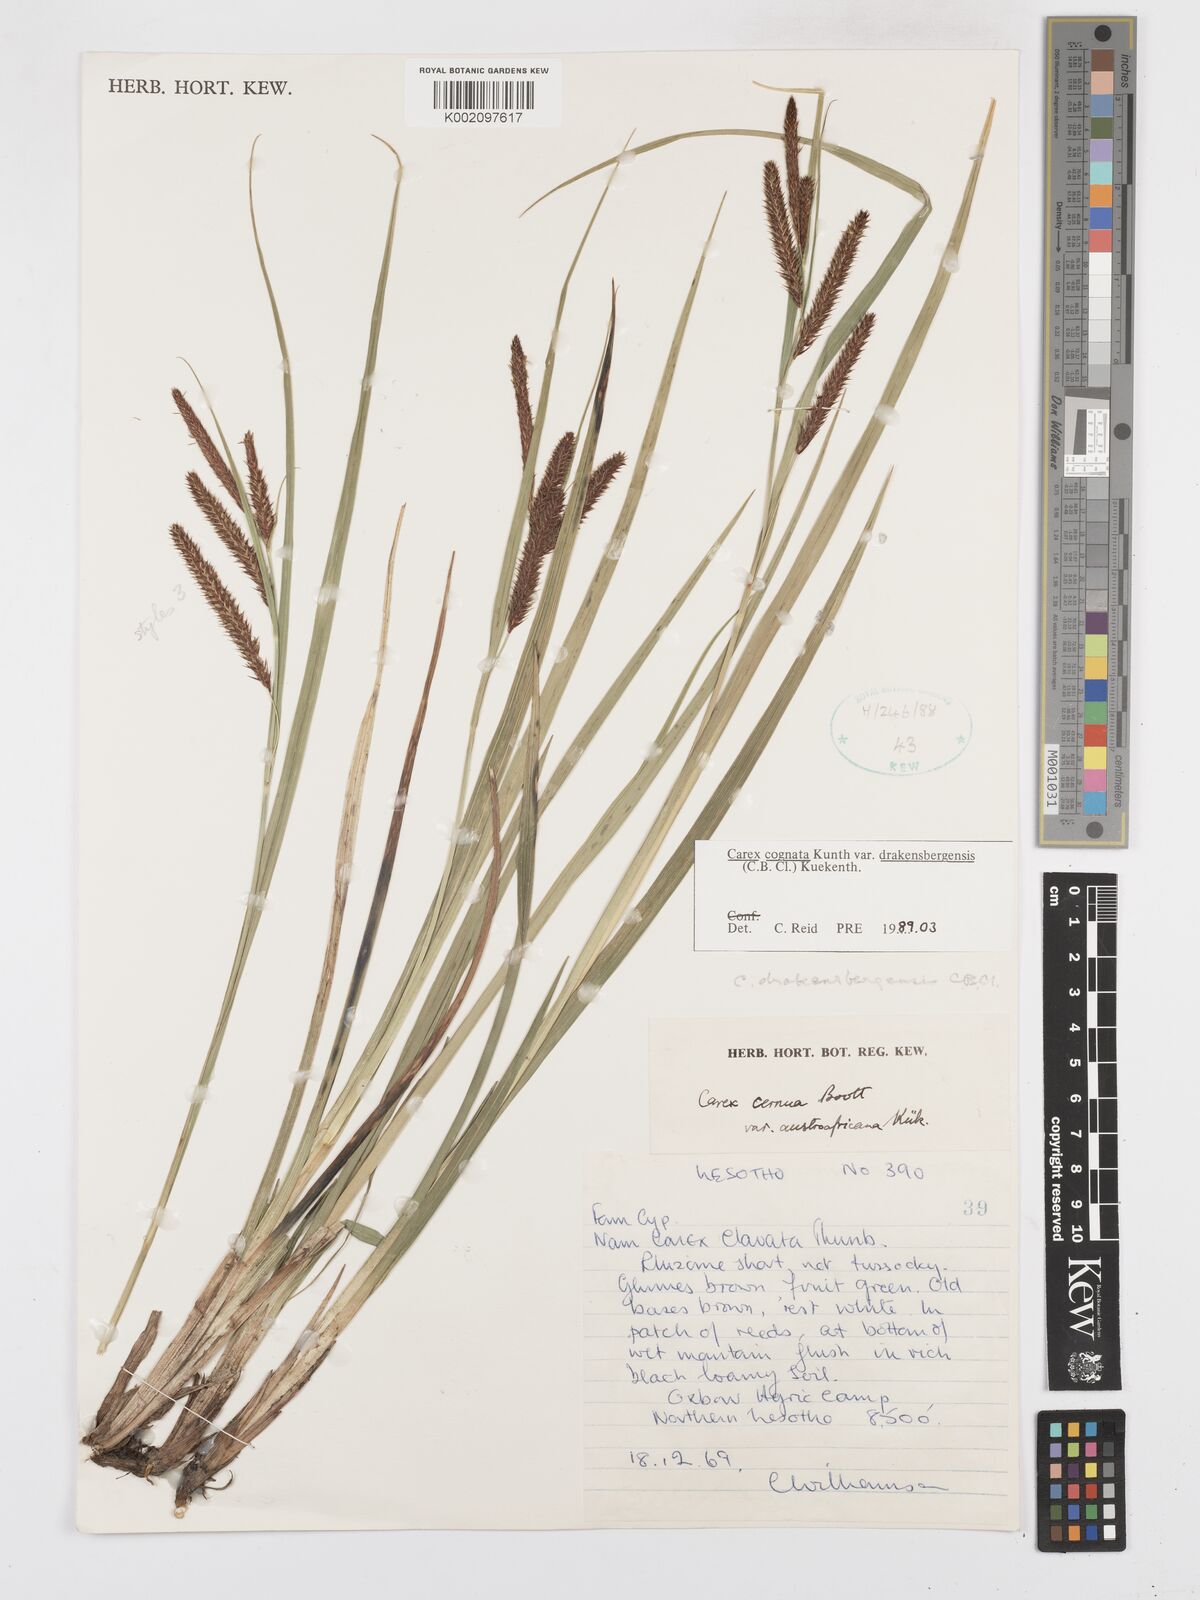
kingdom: Plantae
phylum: Tracheophyta
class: Liliopsida
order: Poales
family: Cyperaceae
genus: Carex
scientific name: Carex cognata
